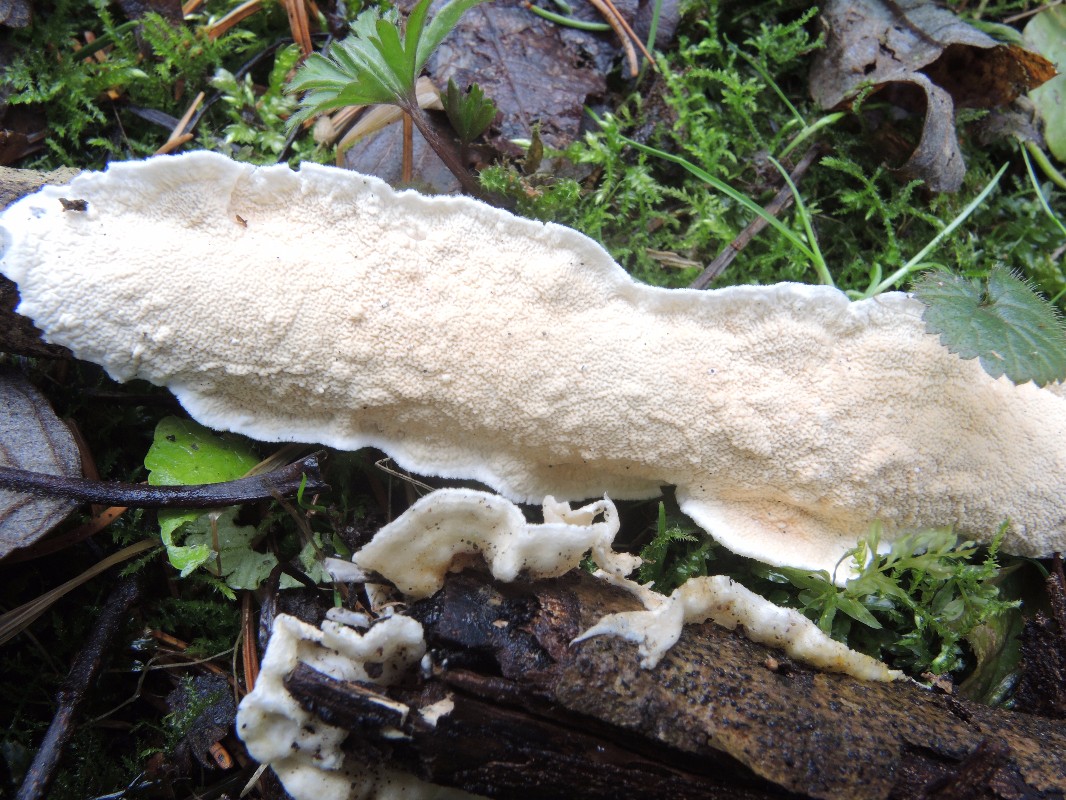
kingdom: Fungi
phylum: Basidiomycota
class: Agaricomycetes
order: Polyporales
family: Irpicaceae
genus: Byssomerulius
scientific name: Byssomerulius corium
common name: læder-åresvamp
